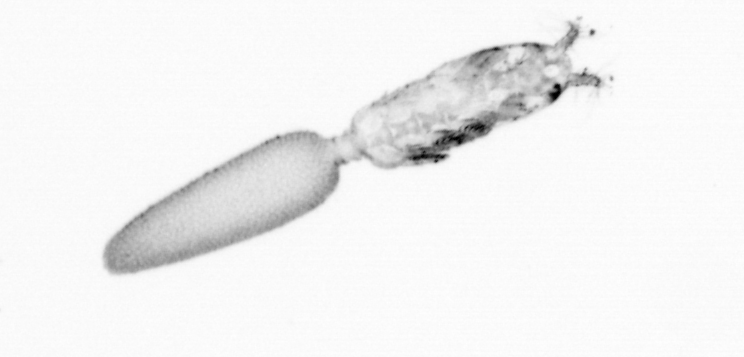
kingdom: Animalia
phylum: Arthropoda
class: Copepoda
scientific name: Copepoda
